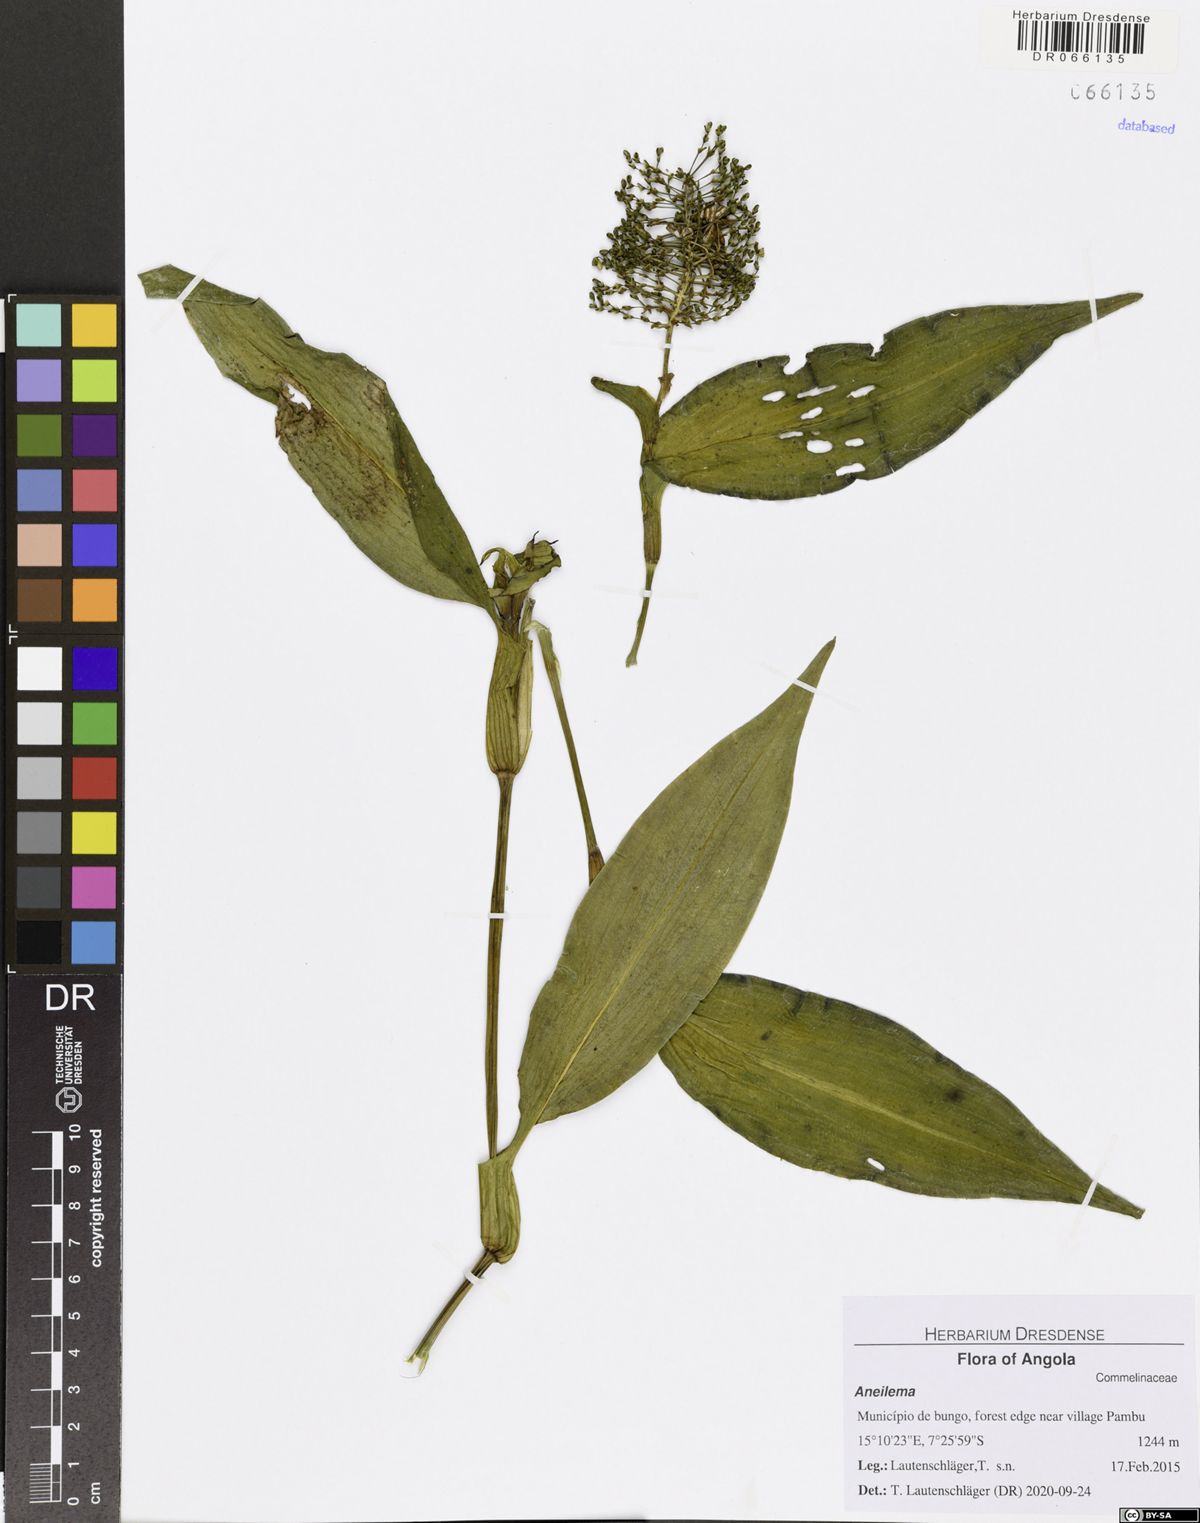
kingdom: Plantae
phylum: Tracheophyta
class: Liliopsida
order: Commelinales
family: Commelinaceae
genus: Aneilema
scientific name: Aneilema beniniense
